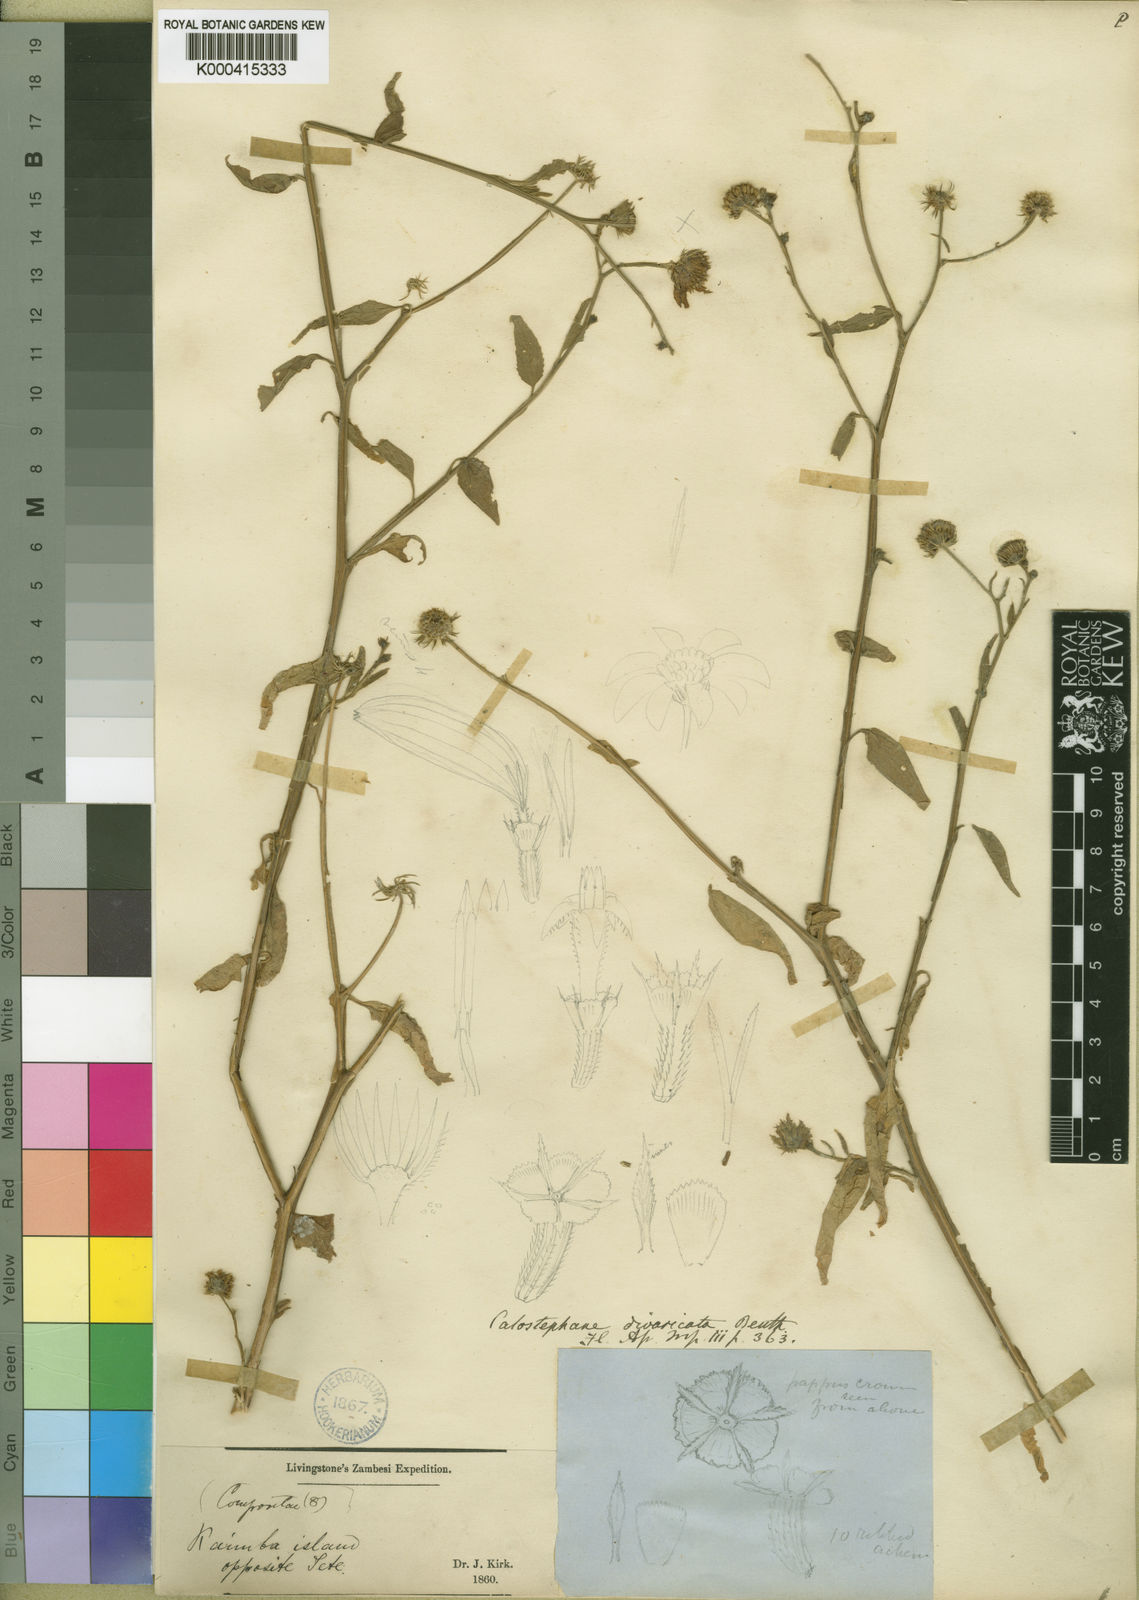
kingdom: Plantae
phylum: Tracheophyta
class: Magnoliopsida
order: Asterales
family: Asteraceae
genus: Calostephane
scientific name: Calostephane divaricata
